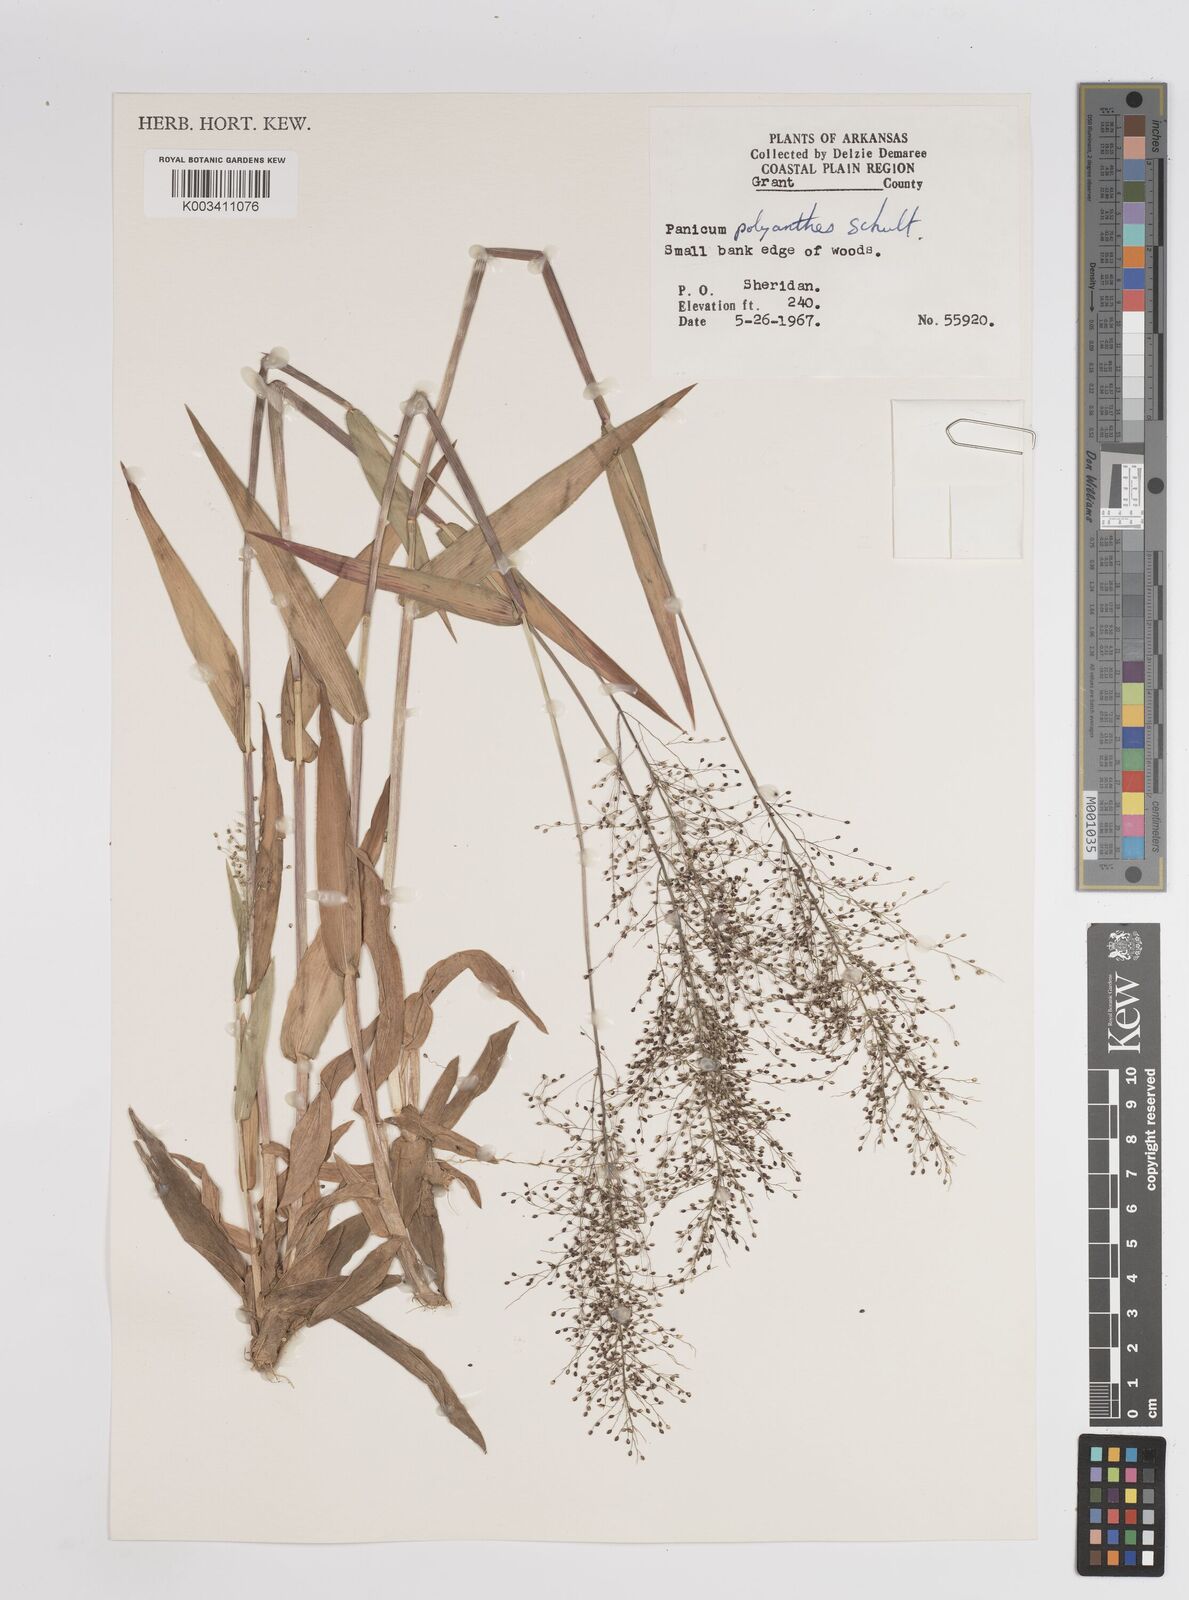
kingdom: Plantae
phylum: Tracheophyta
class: Liliopsida
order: Poales
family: Poaceae
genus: Dichanthelium
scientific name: Dichanthelium polyanthes
